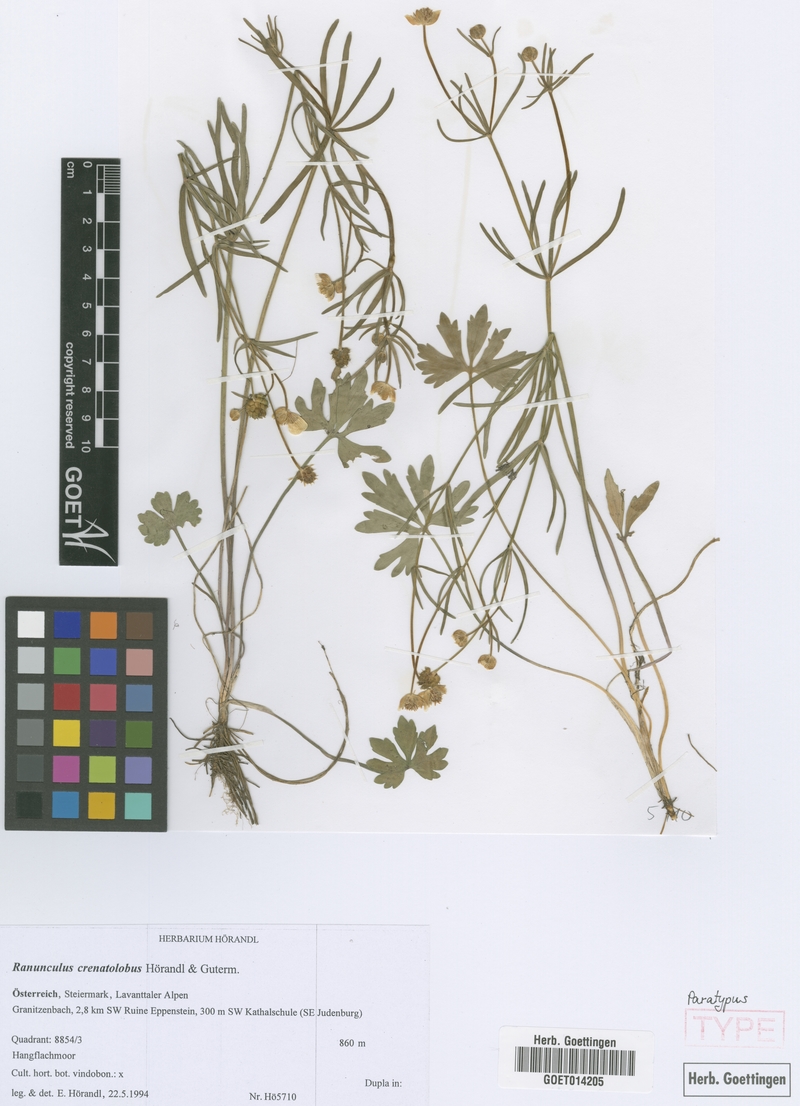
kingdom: Plantae
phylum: Tracheophyta
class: Magnoliopsida
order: Ranunculales
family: Ranunculaceae
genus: Ranunculus
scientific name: Ranunculus crenatolobus
